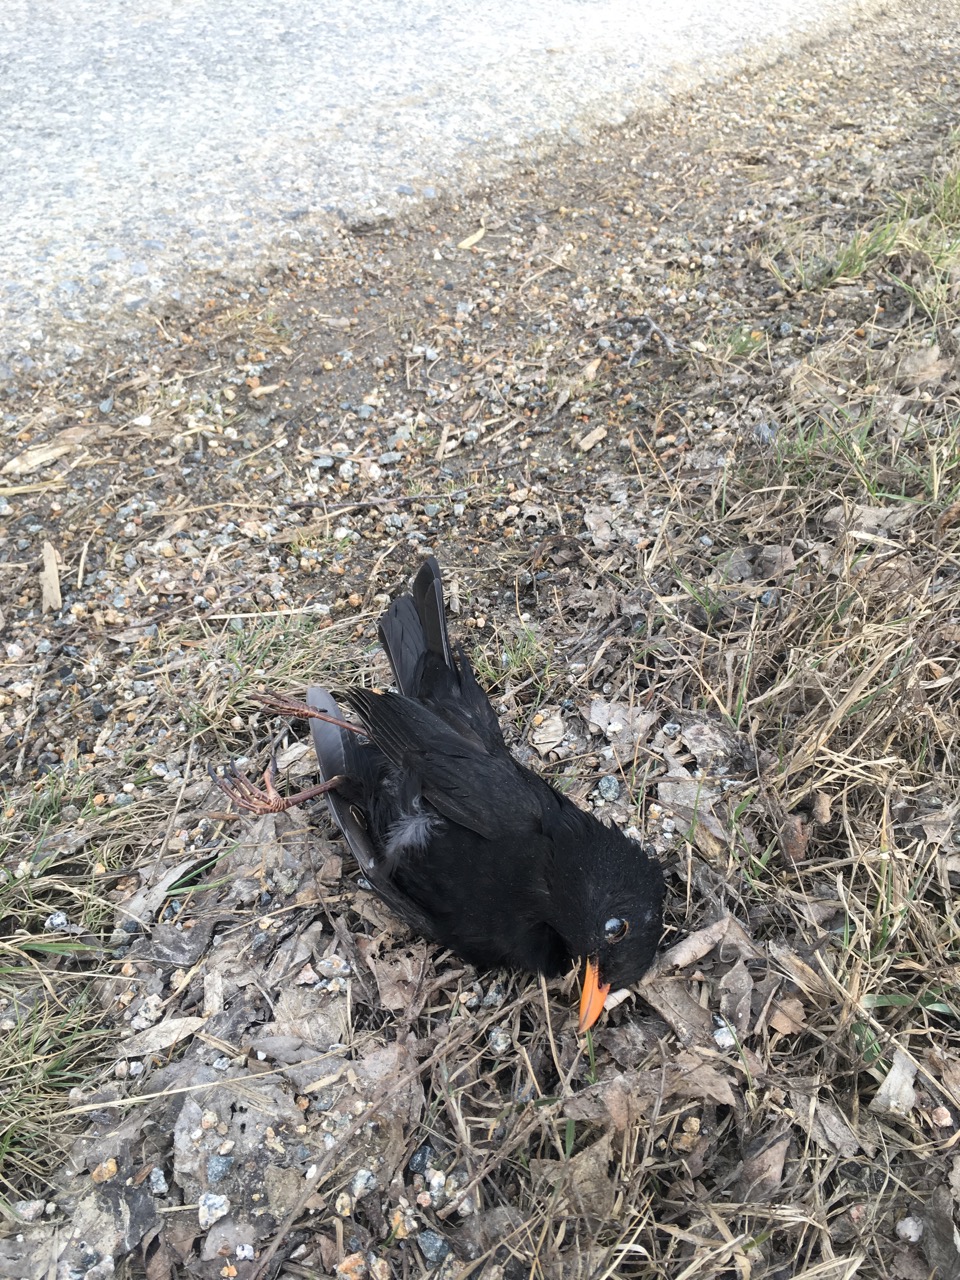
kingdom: Animalia
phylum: Chordata
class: Aves
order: Passeriformes
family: Turdidae
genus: Turdus
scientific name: Turdus merula
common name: Common blackbird
